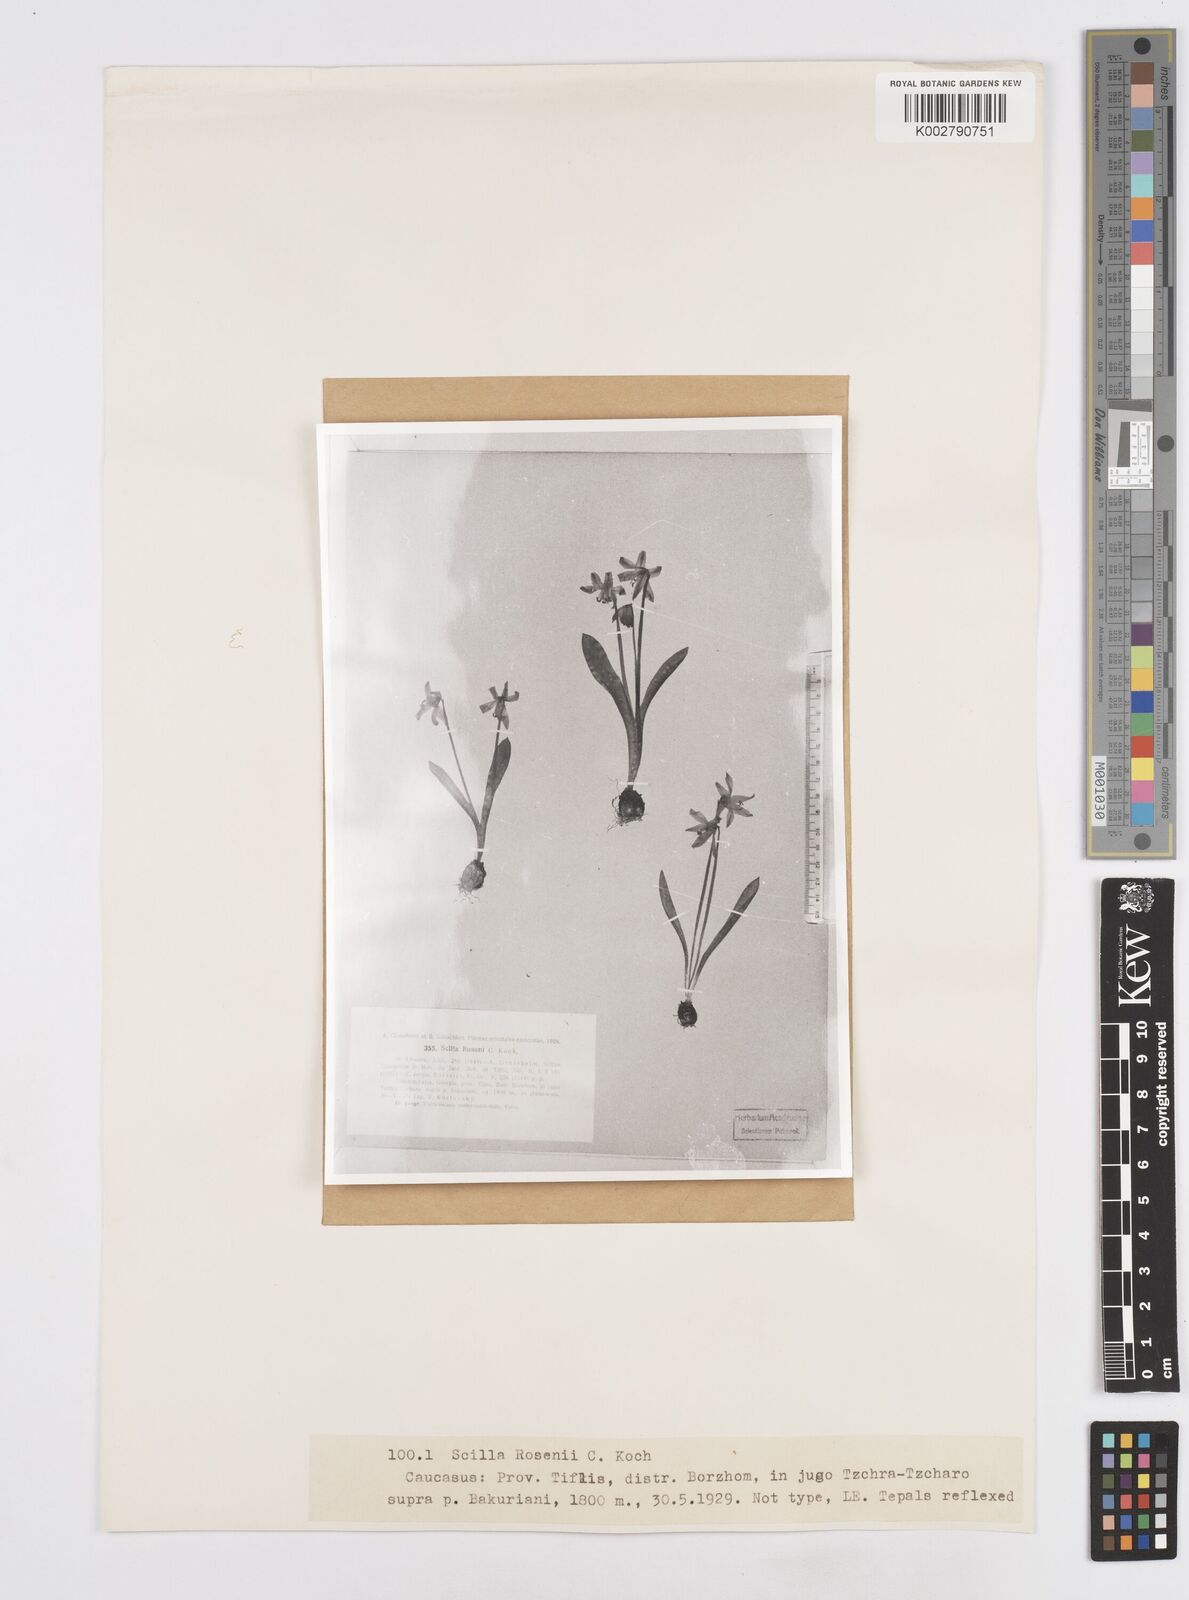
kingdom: Plantae
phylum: Tracheophyta
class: Liliopsida
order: Asparagales
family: Asparagaceae
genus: Scilla
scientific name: Scilla rosenii
